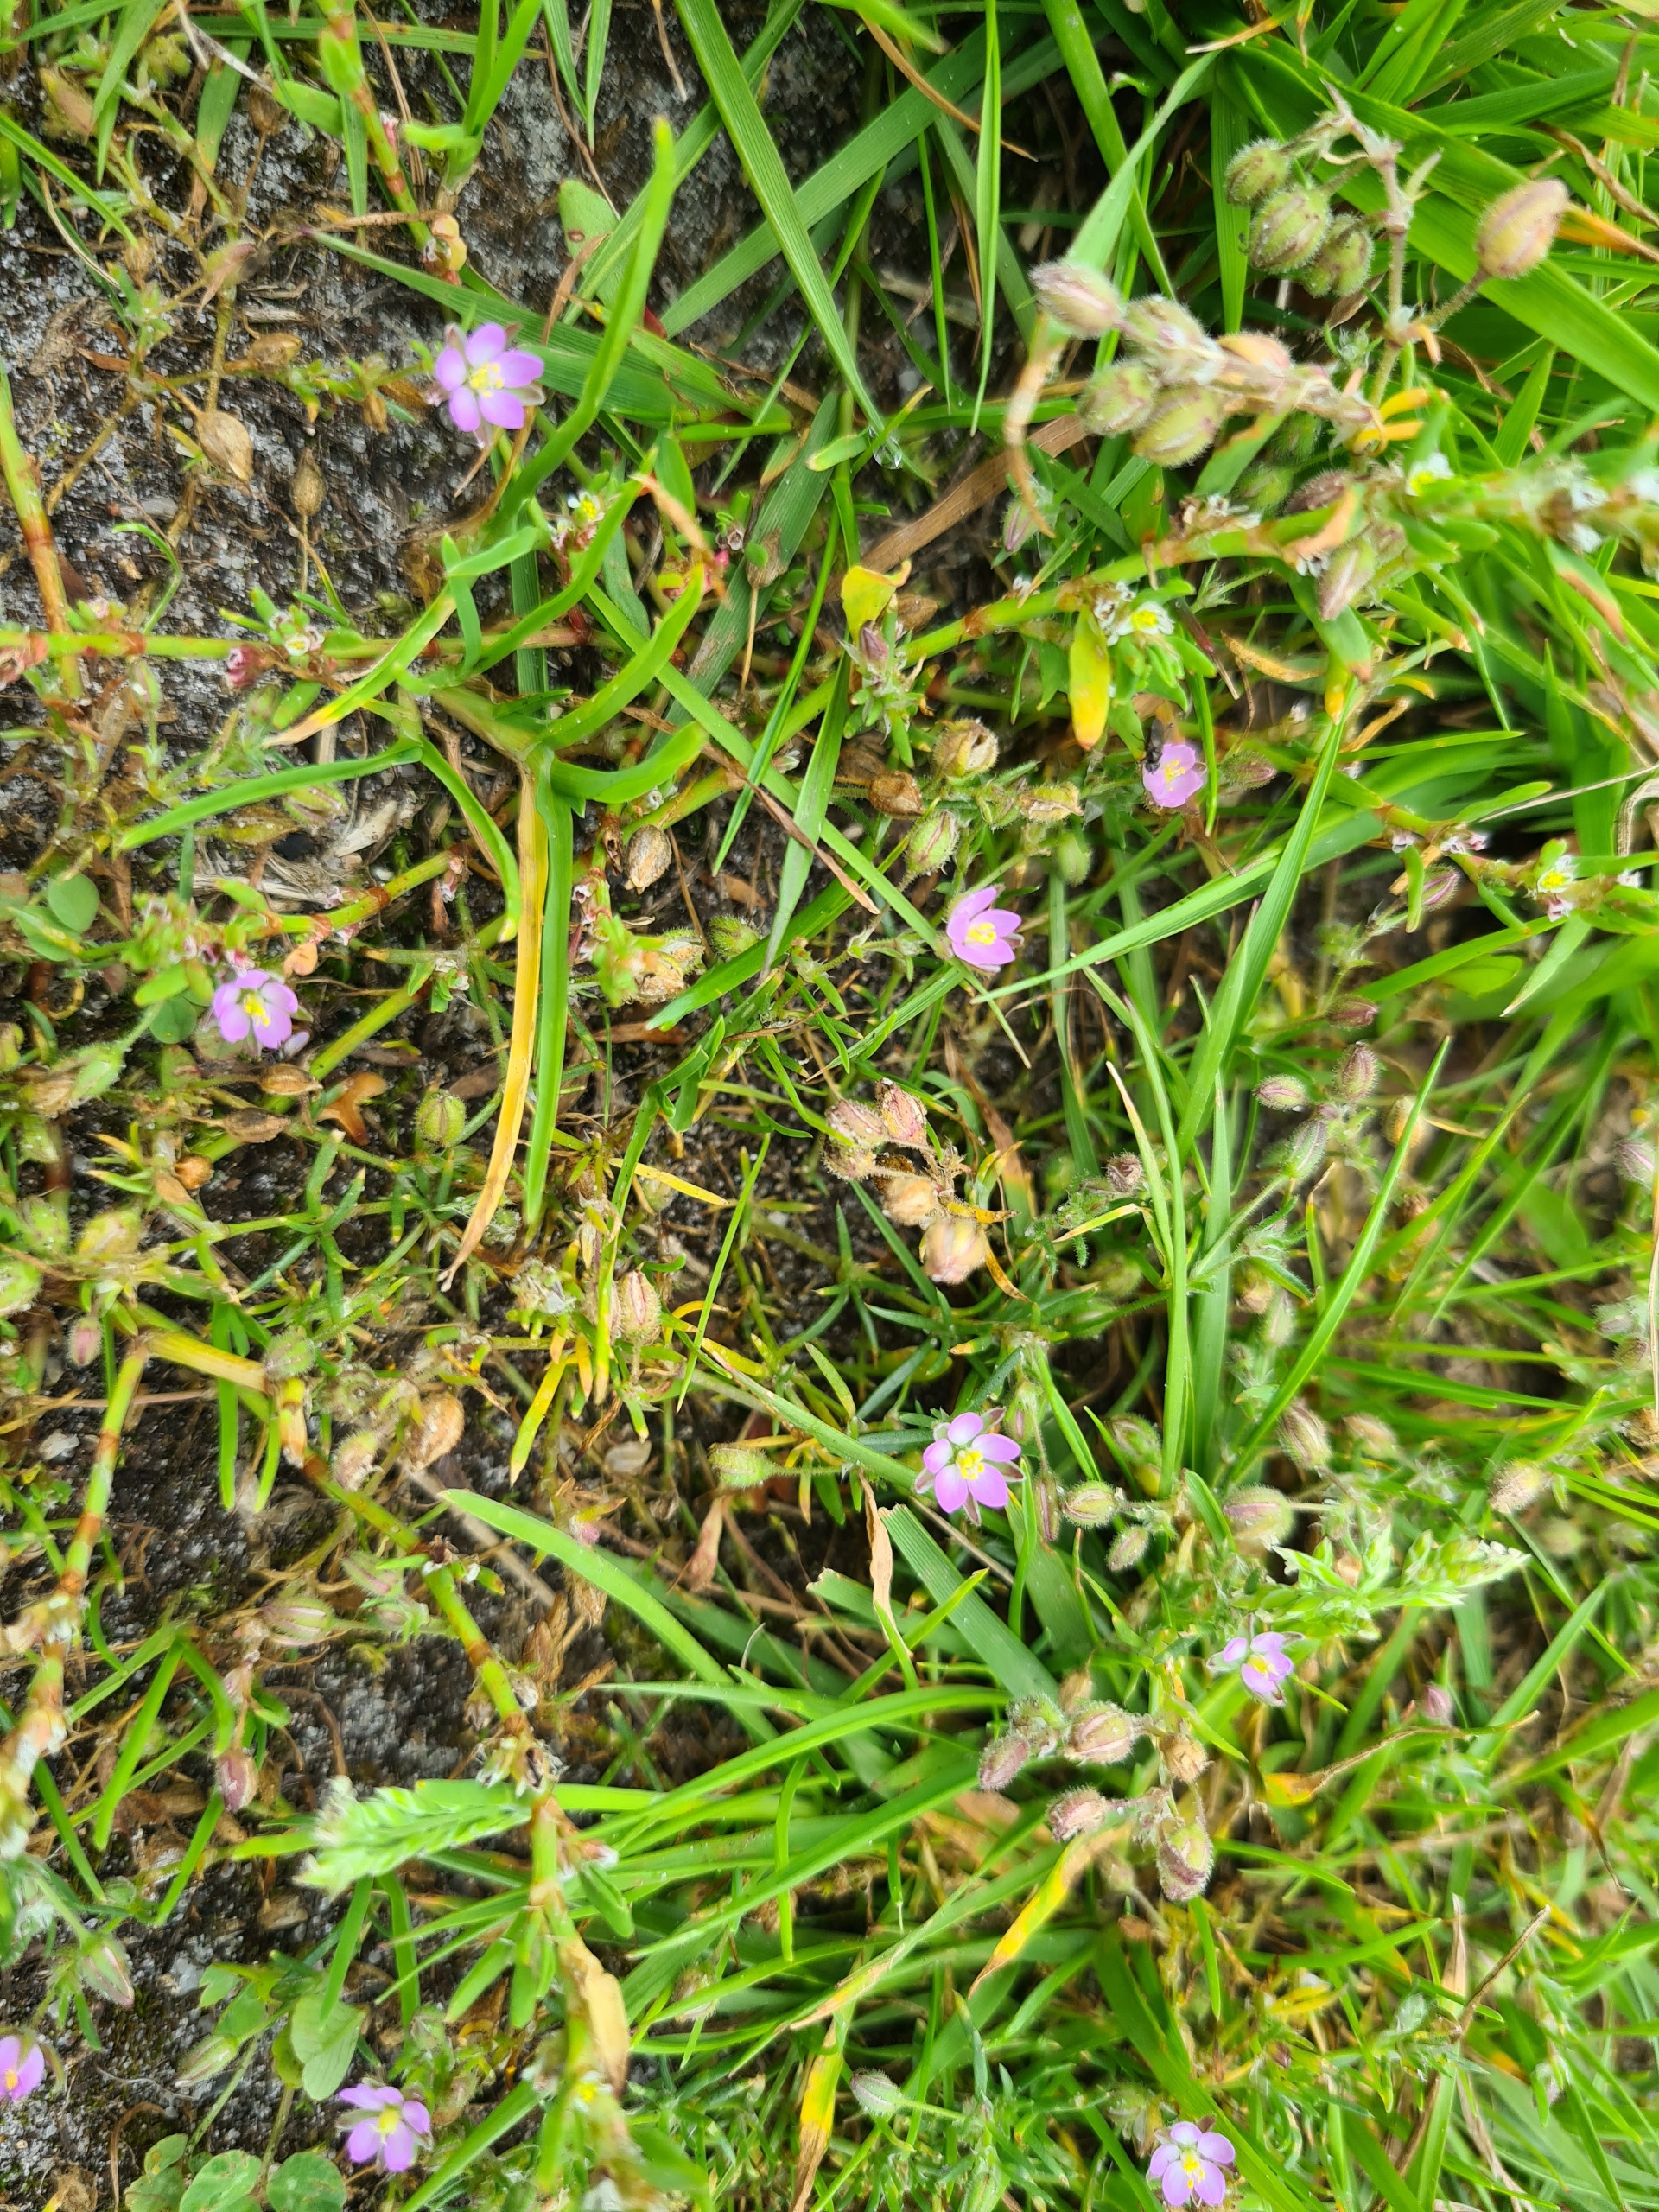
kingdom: Plantae
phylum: Tracheophyta
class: Magnoliopsida
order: Caryophyllales
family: Caryophyllaceae
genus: Spergularia
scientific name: Spergularia rubra
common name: Mark-hindeknæ
